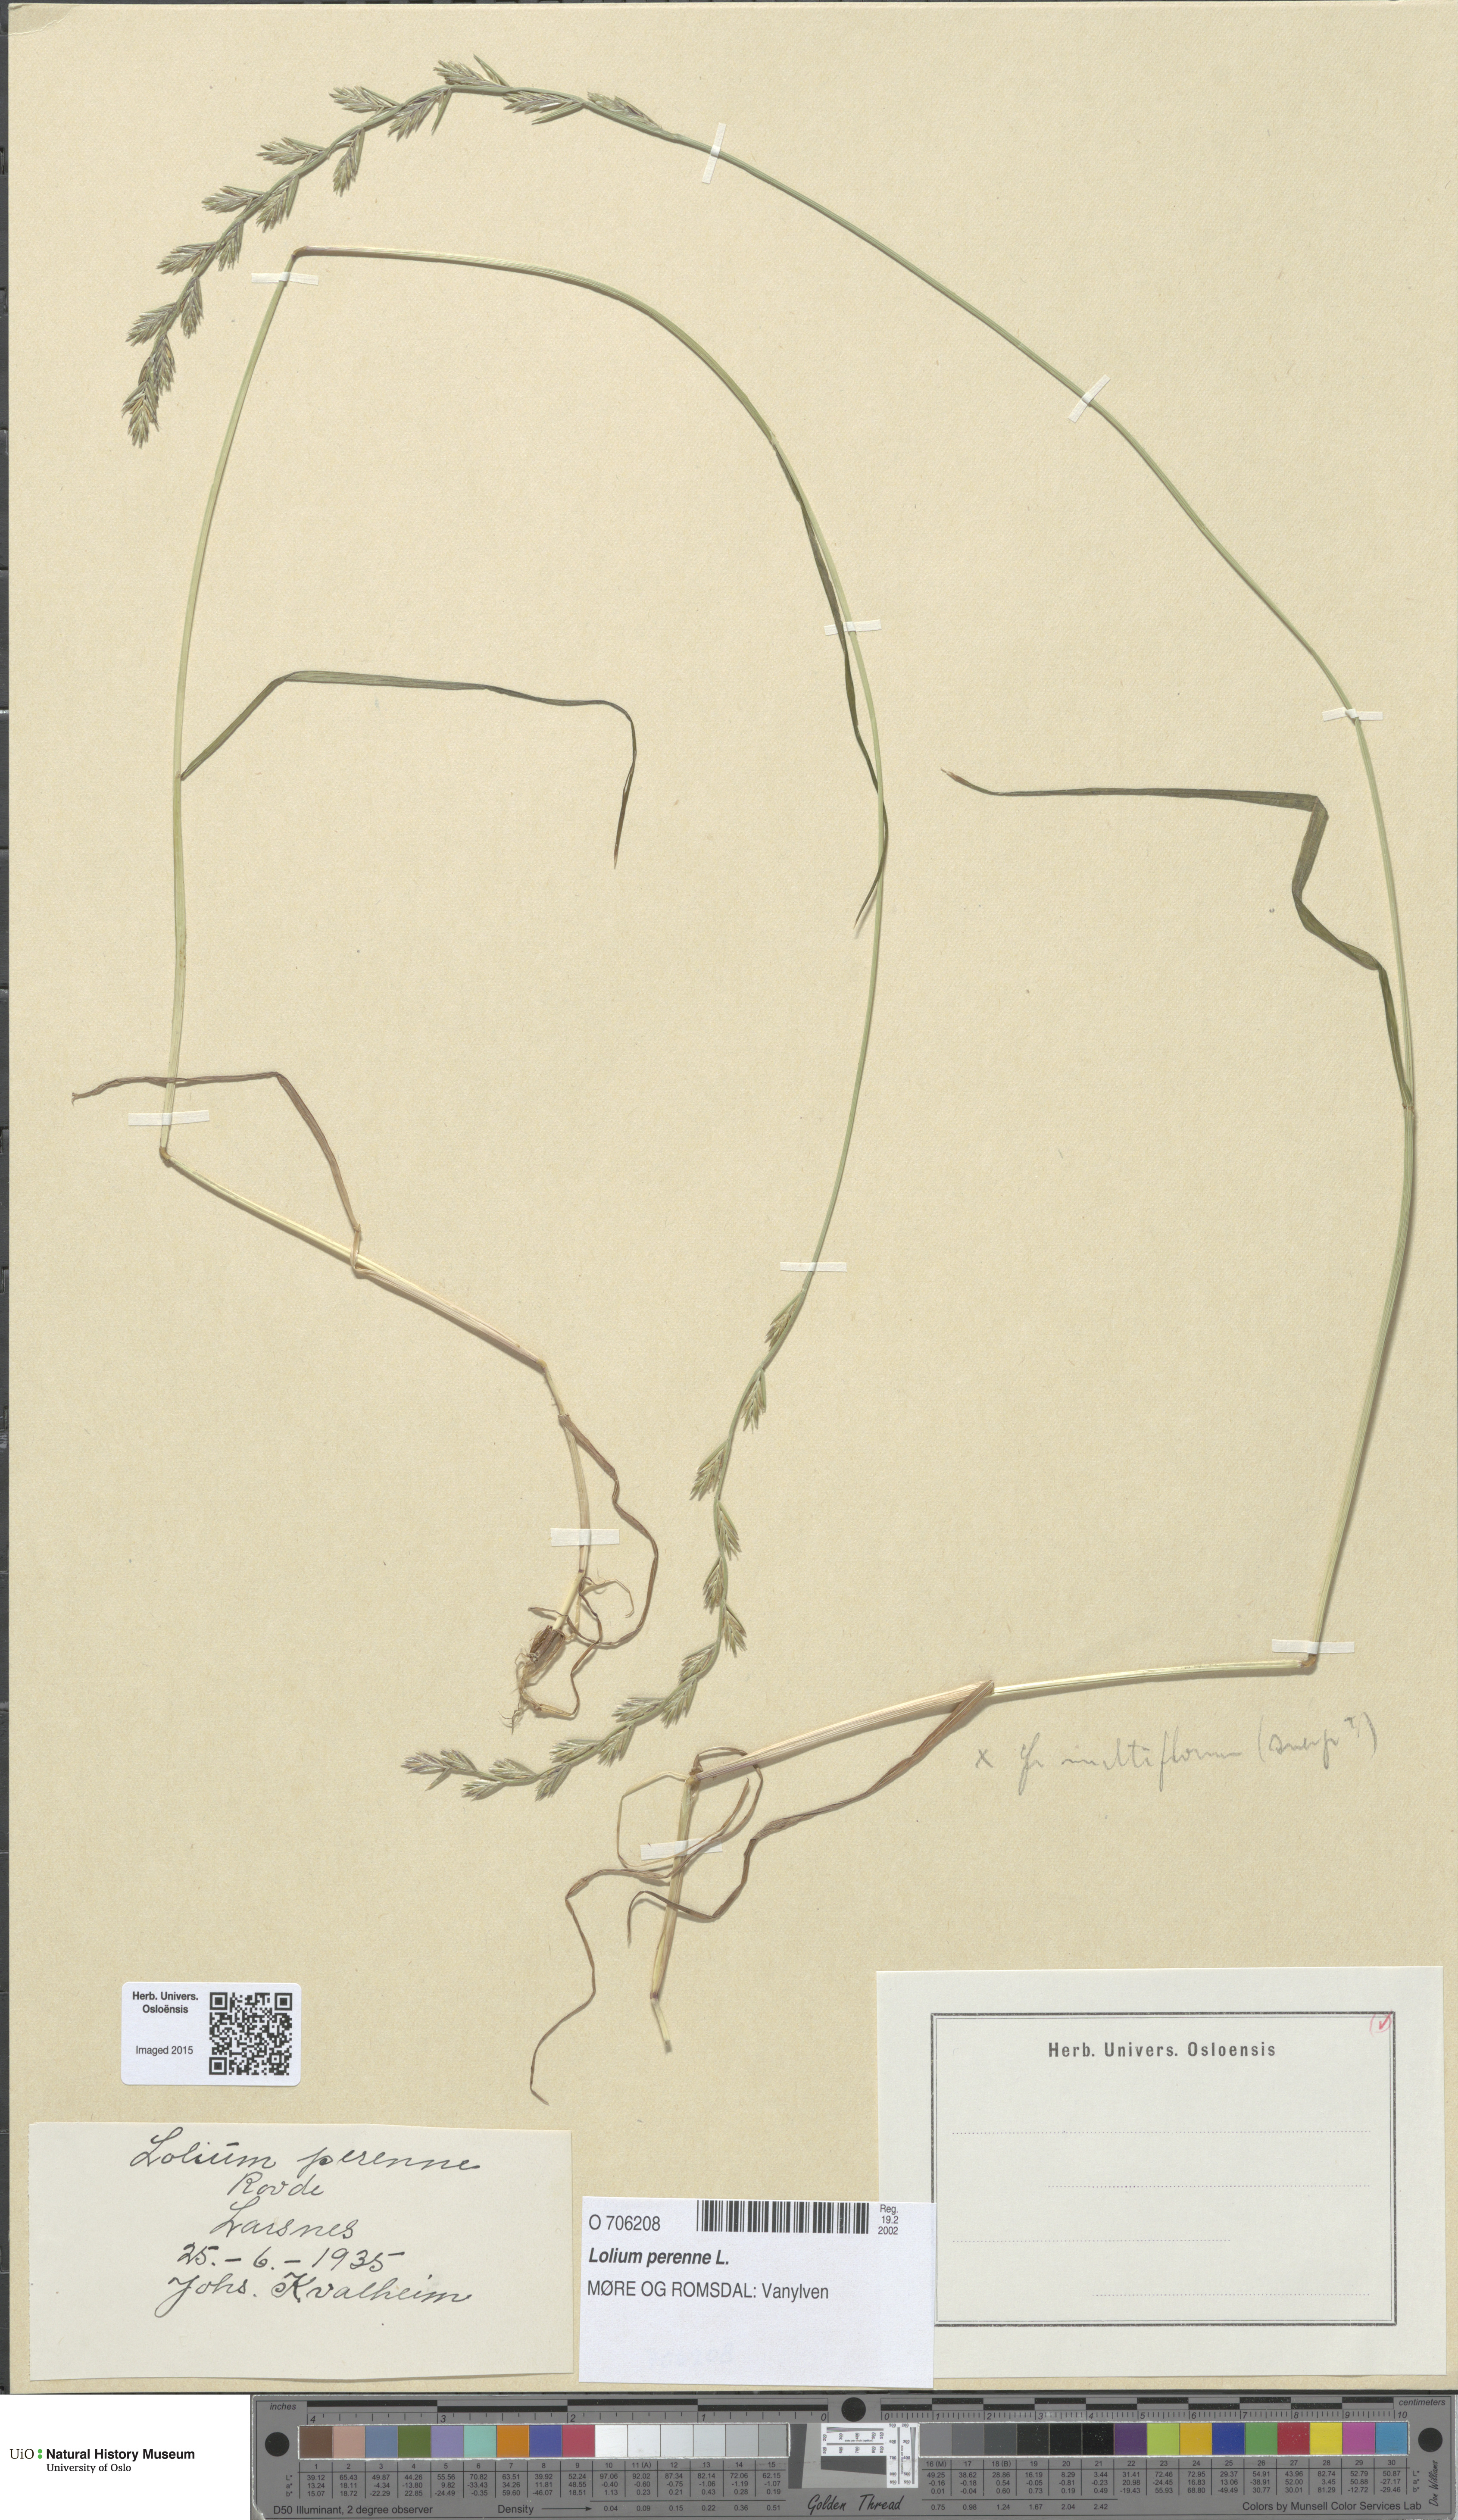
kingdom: Plantae
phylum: Tracheophyta
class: Liliopsida
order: Poales
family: Poaceae
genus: Lolium
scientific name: Lolium perenne
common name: Perennial ryegrass
